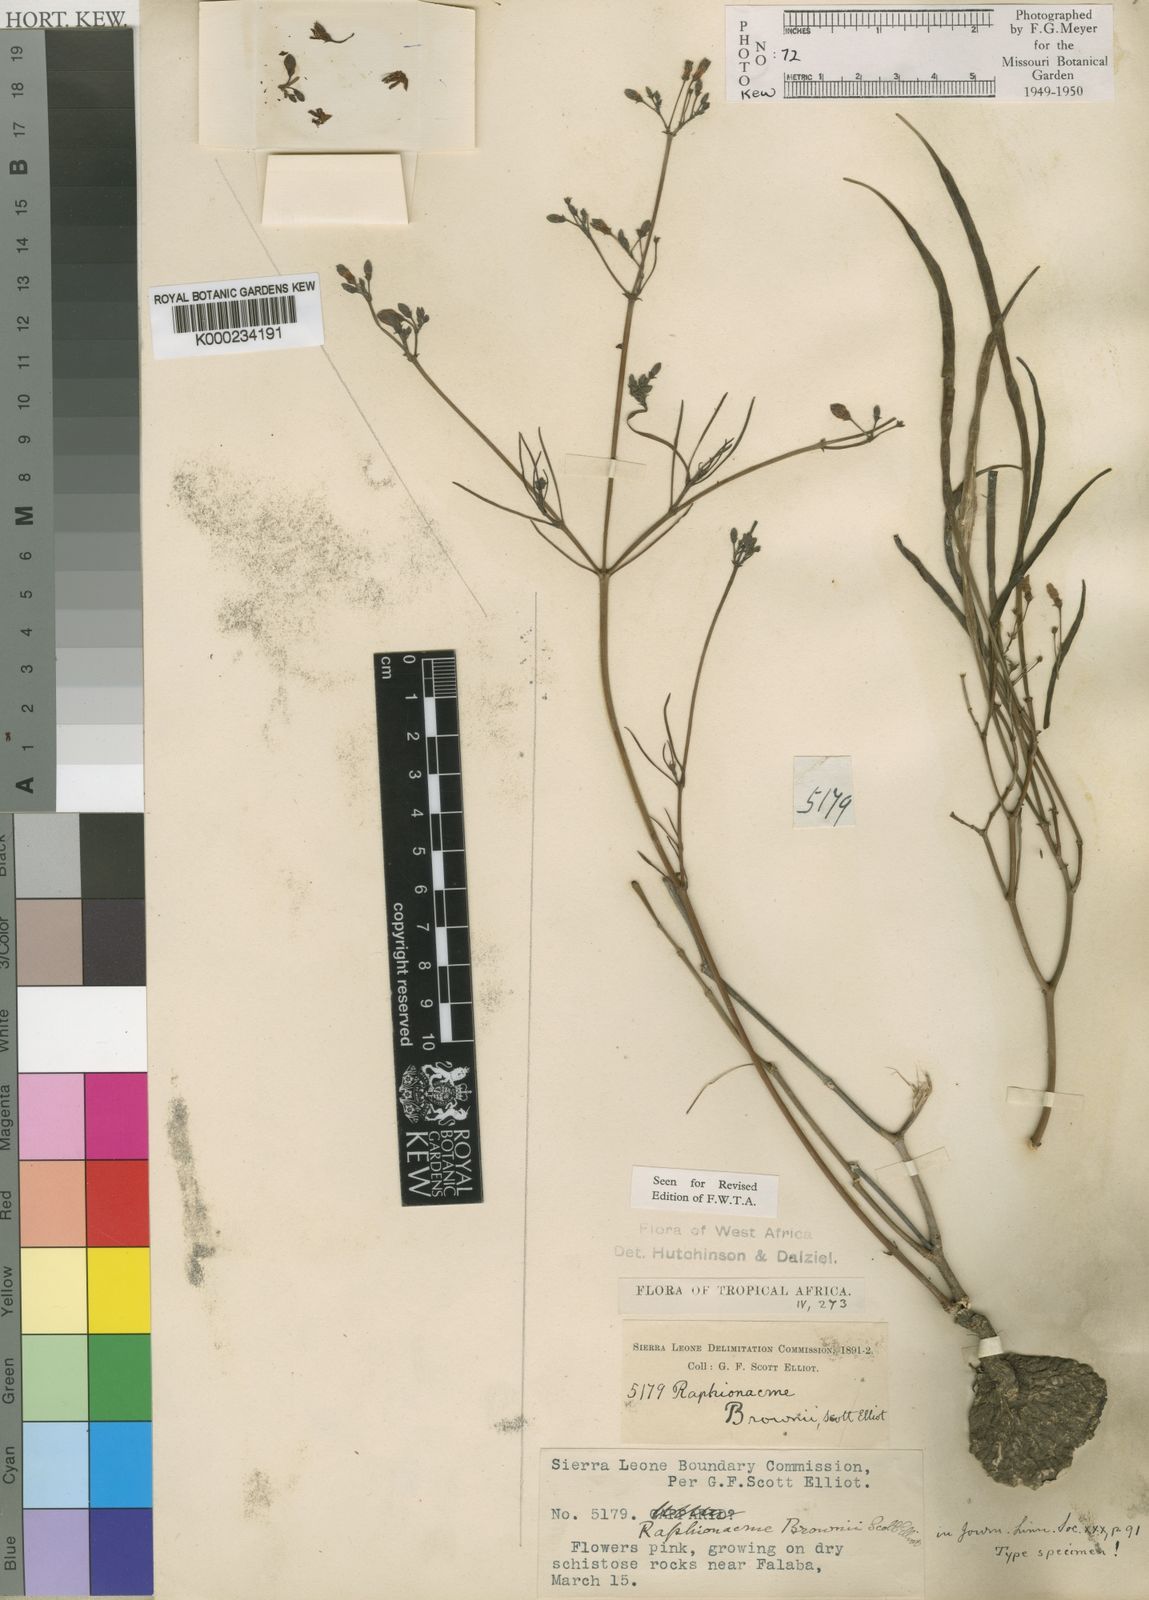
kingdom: Plantae
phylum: Tracheophyta
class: Magnoliopsida
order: Gentianales
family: Apocynaceae
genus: Raphionacme
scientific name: Raphionacme brownii
